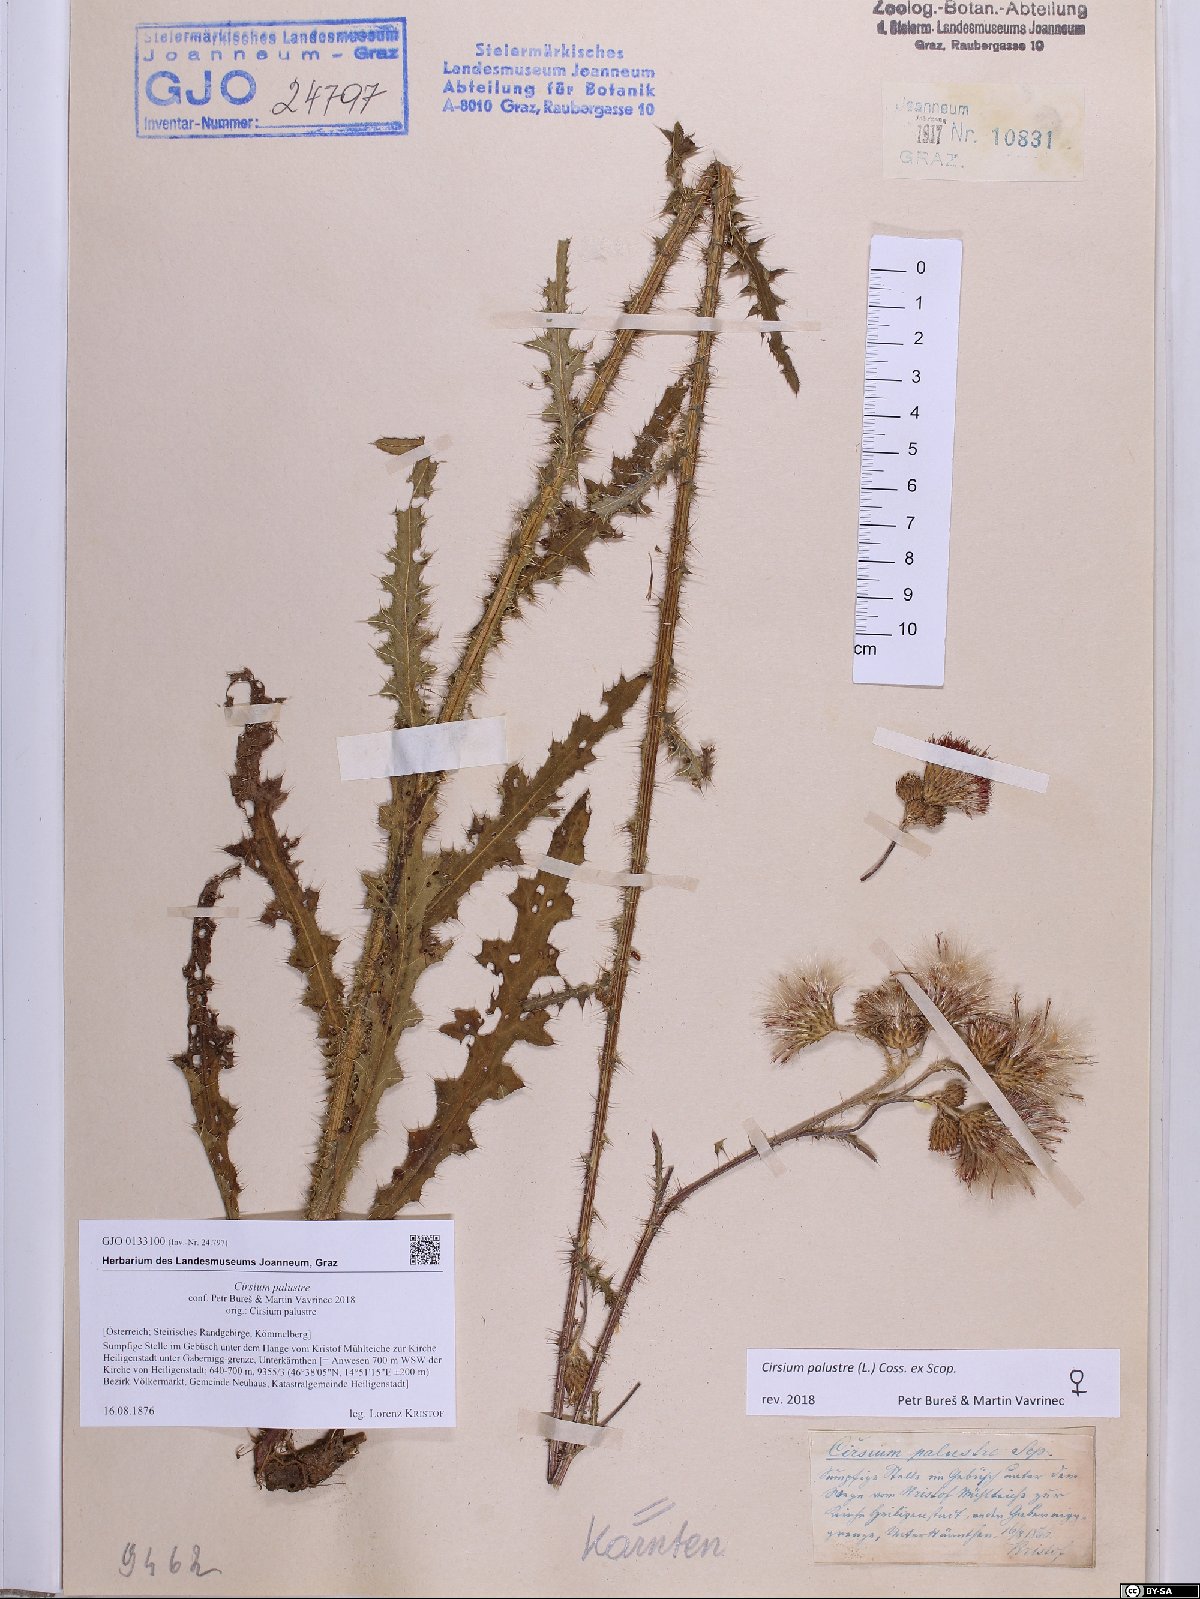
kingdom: Plantae
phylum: Tracheophyta
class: Magnoliopsida
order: Asterales
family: Asteraceae
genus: Cirsium
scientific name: Cirsium palustre
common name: Marsh thistle
